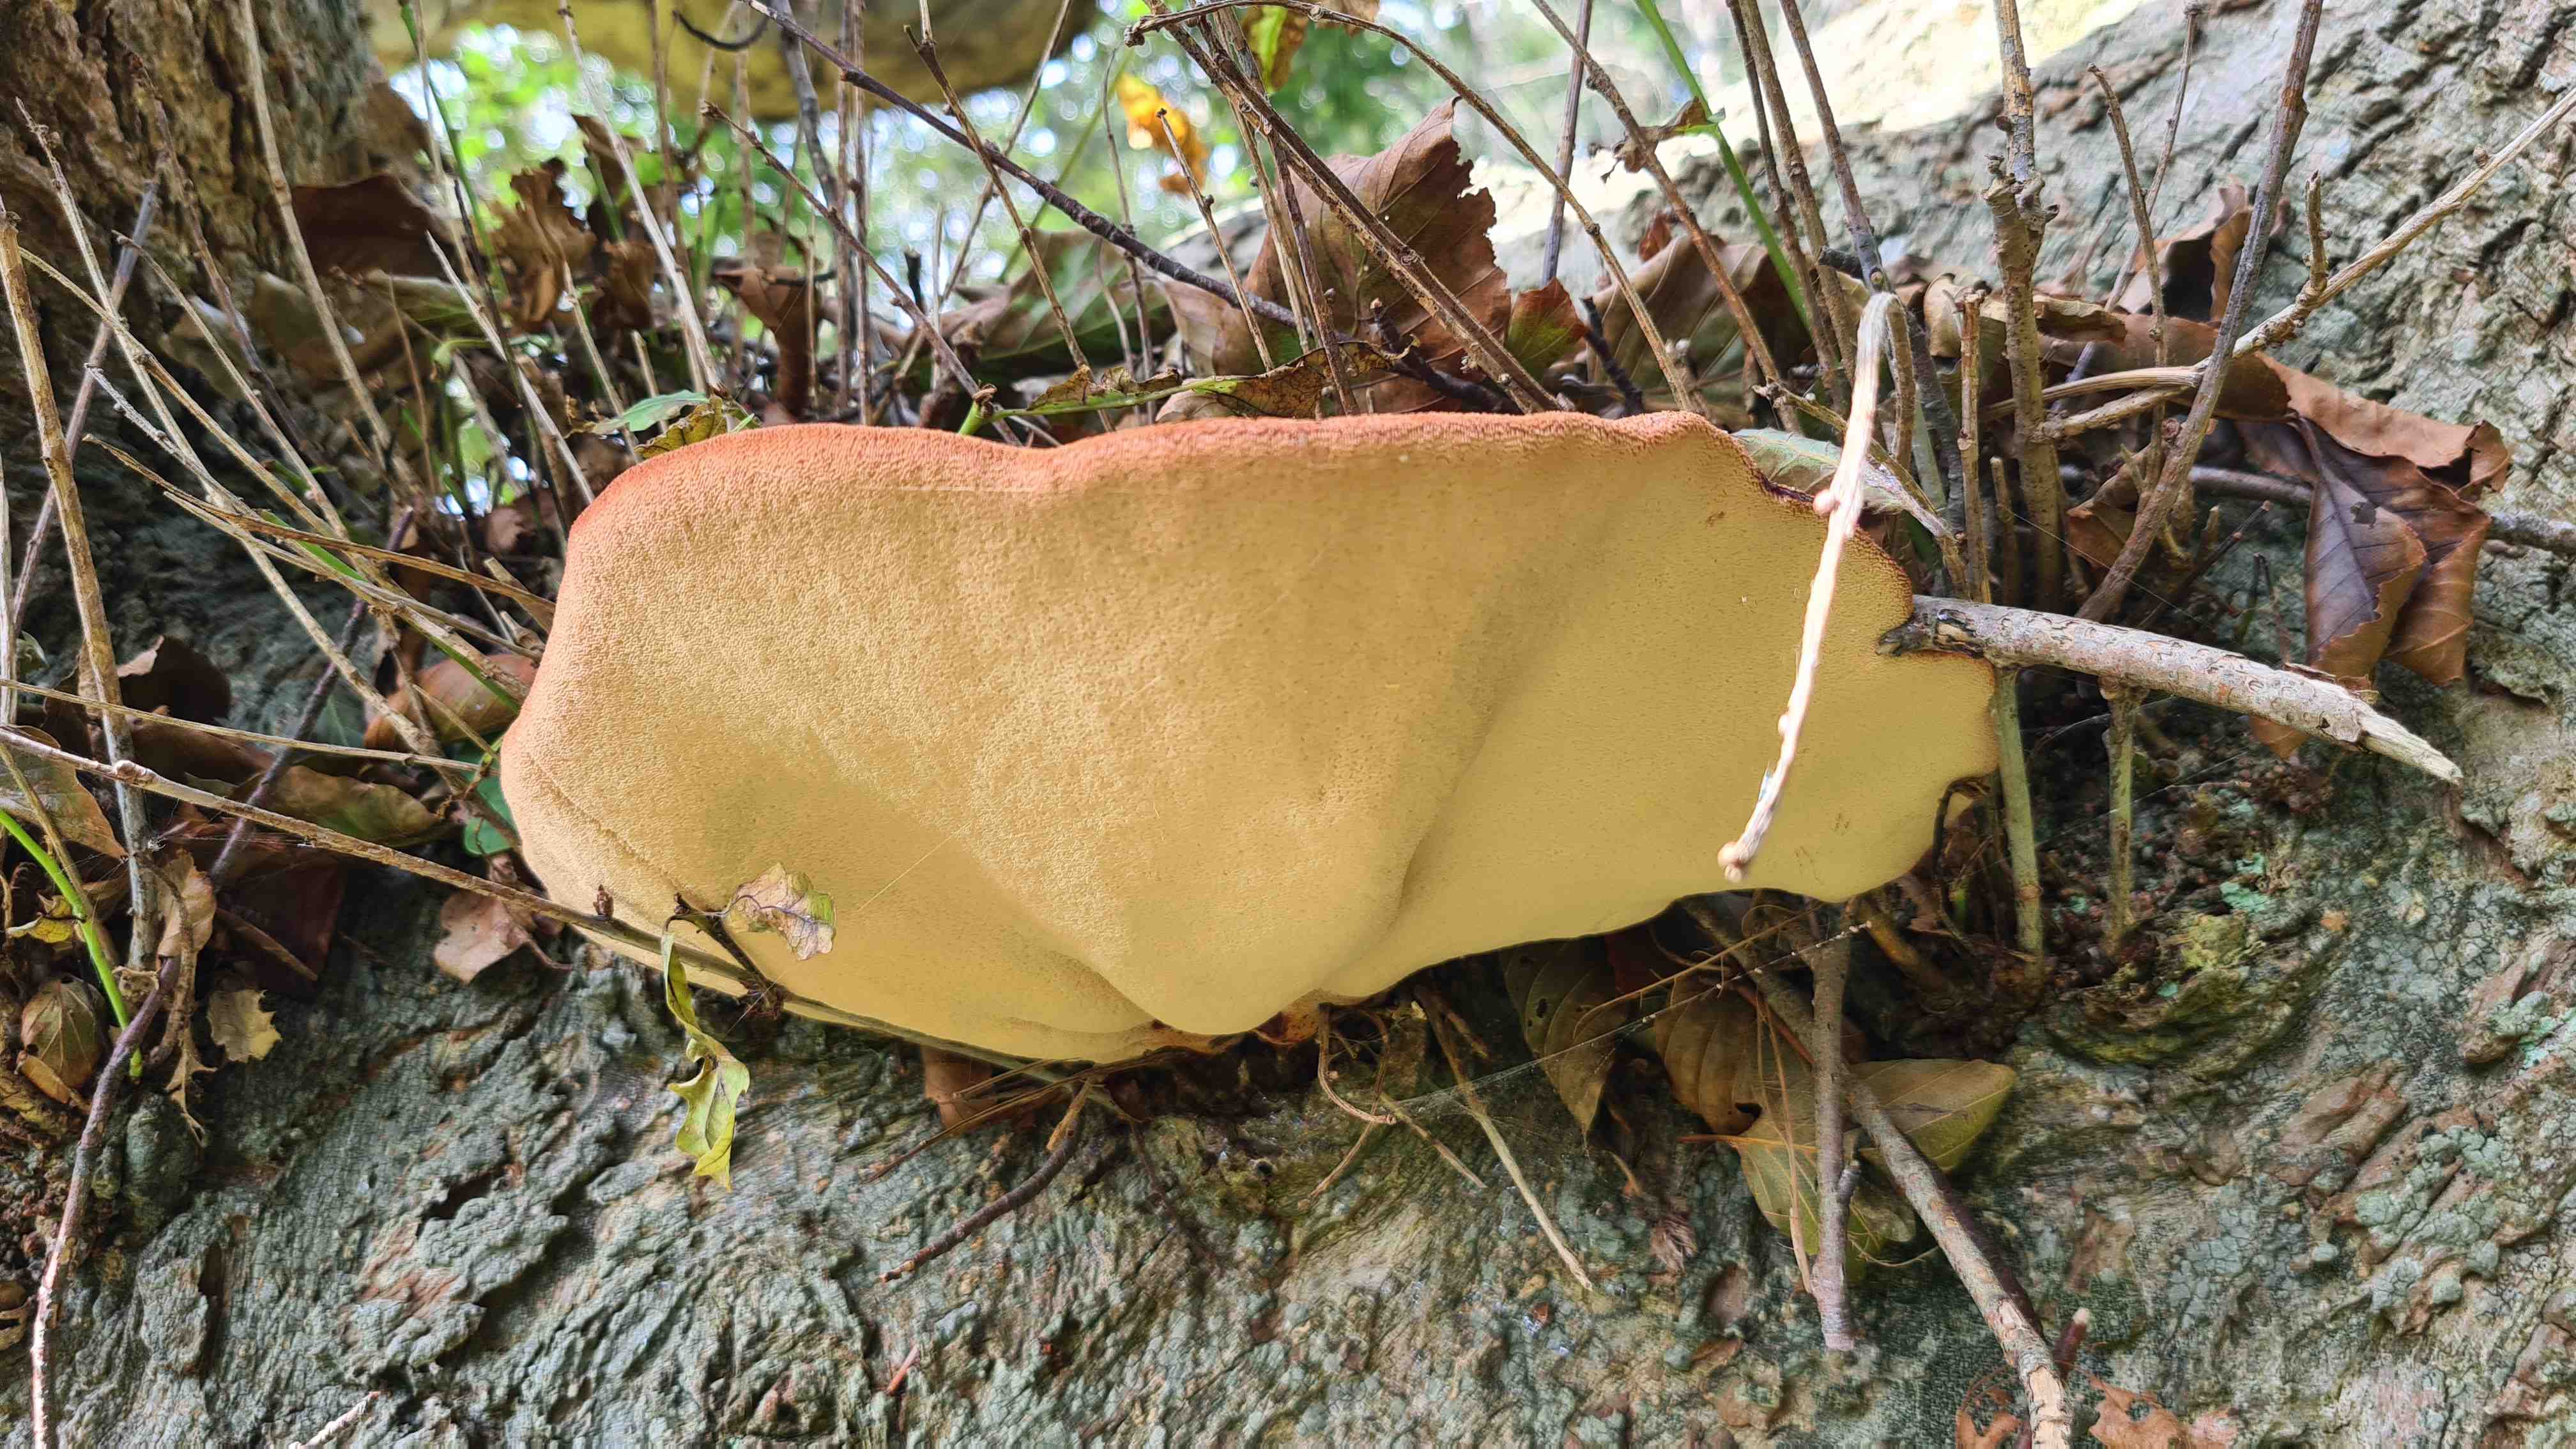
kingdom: Fungi
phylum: Basidiomycota
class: Agaricomycetes
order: Agaricales
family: Fistulinaceae
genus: Fistulina
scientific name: Fistulina hepatica
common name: oksetunge
